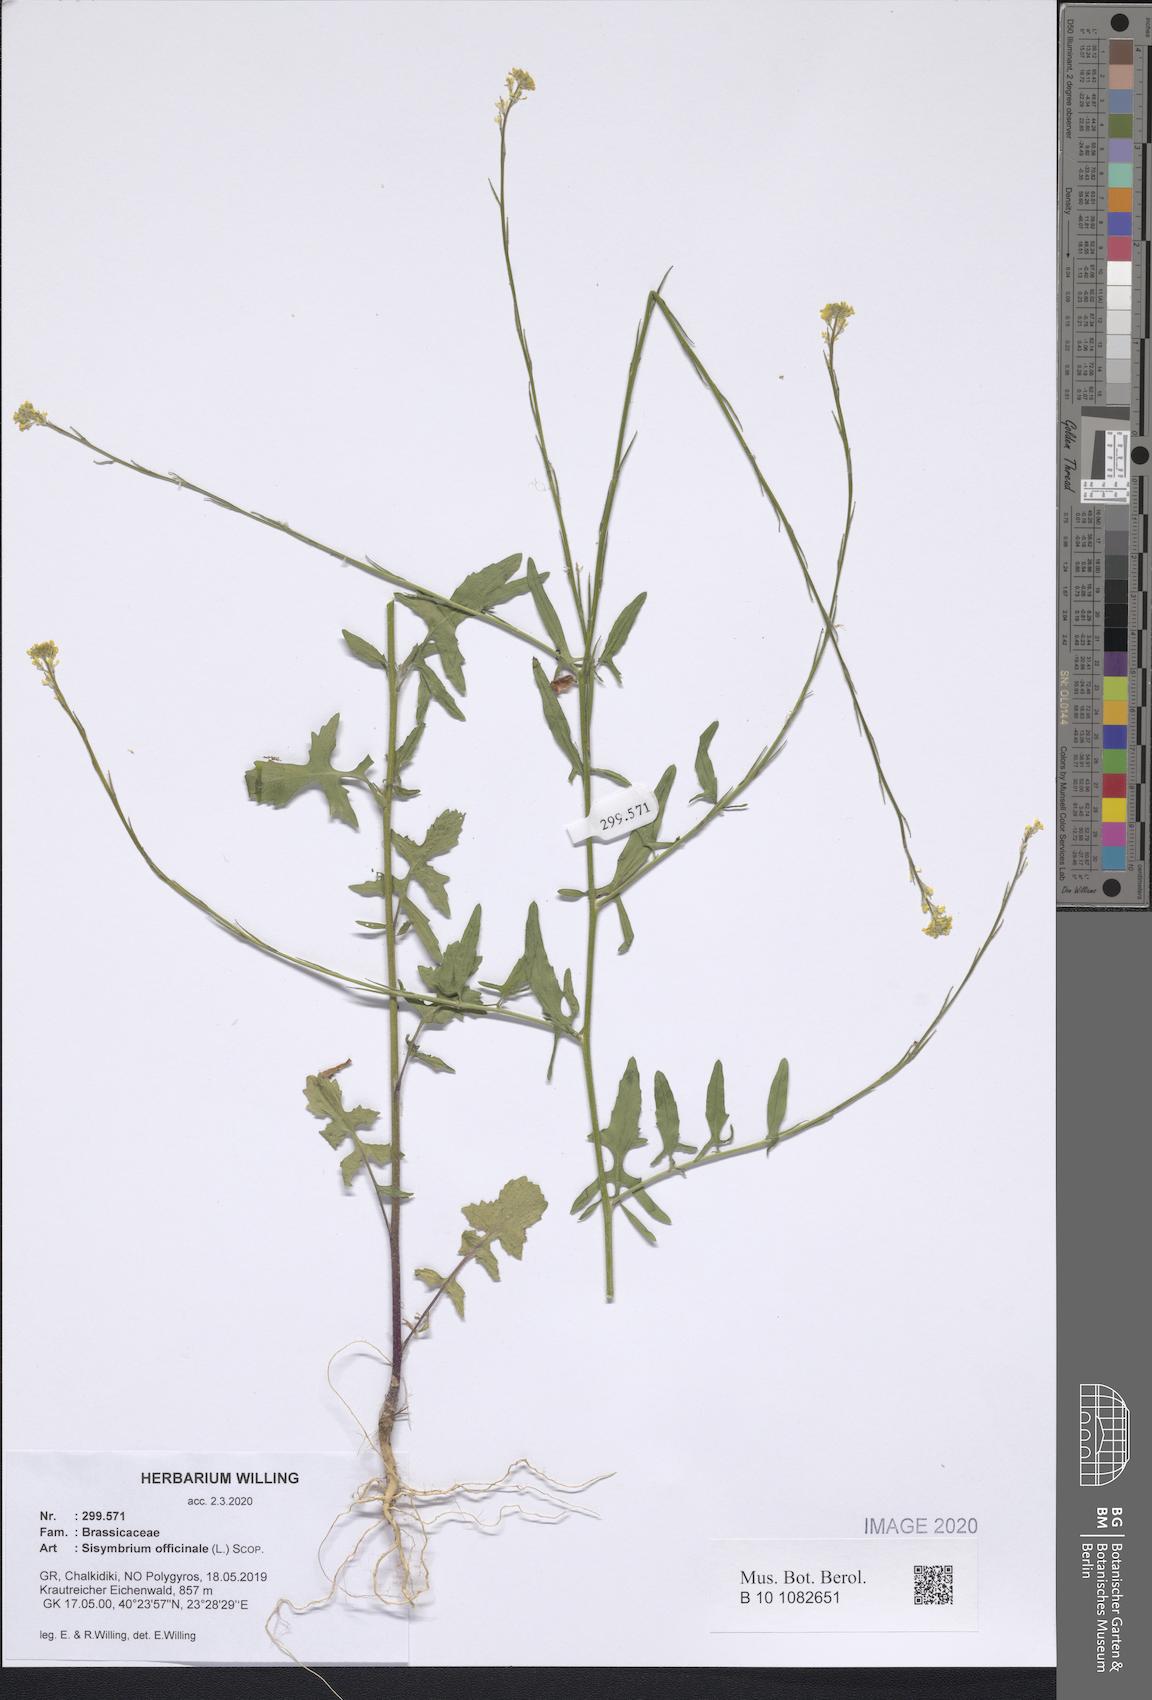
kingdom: Plantae
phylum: Tracheophyta
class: Magnoliopsida
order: Brassicales
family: Brassicaceae
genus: Sisymbrium
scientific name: Sisymbrium officinale
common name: Hedge mustard
